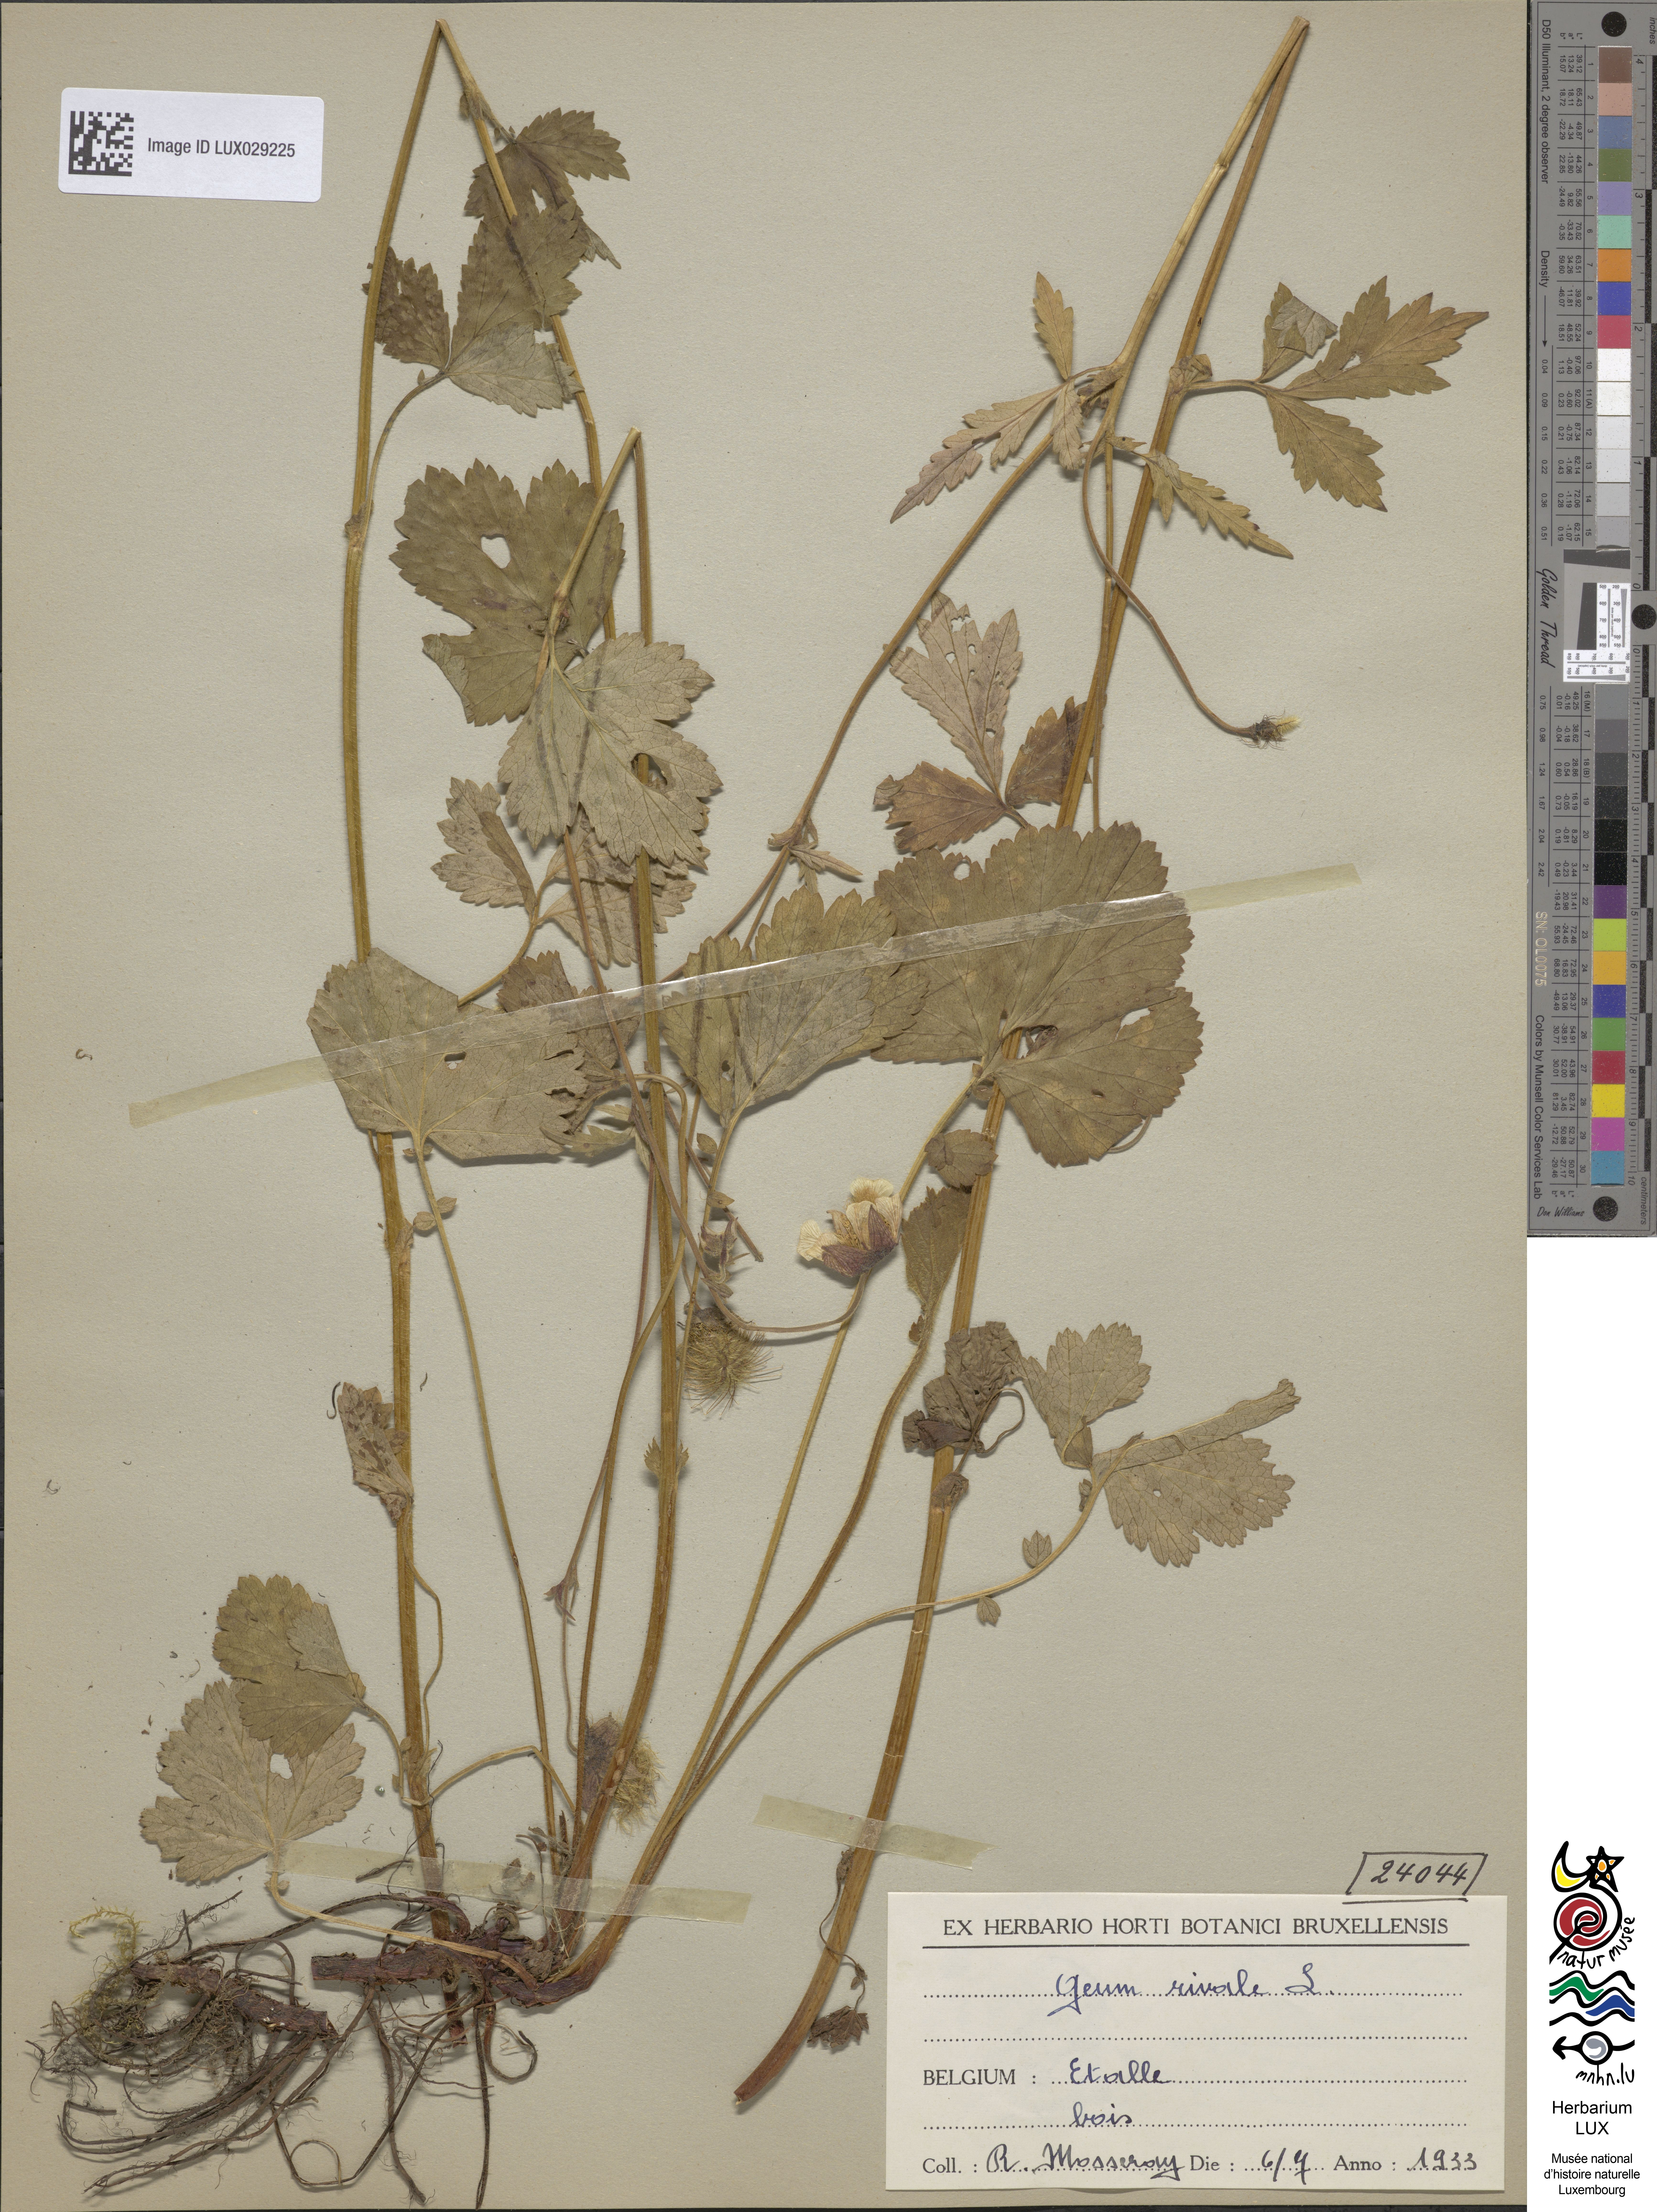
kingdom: Plantae
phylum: Tracheophyta
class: Magnoliopsida
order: Rosales
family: Rosaceae
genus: Geum
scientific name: Geum rivale
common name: Water avens
